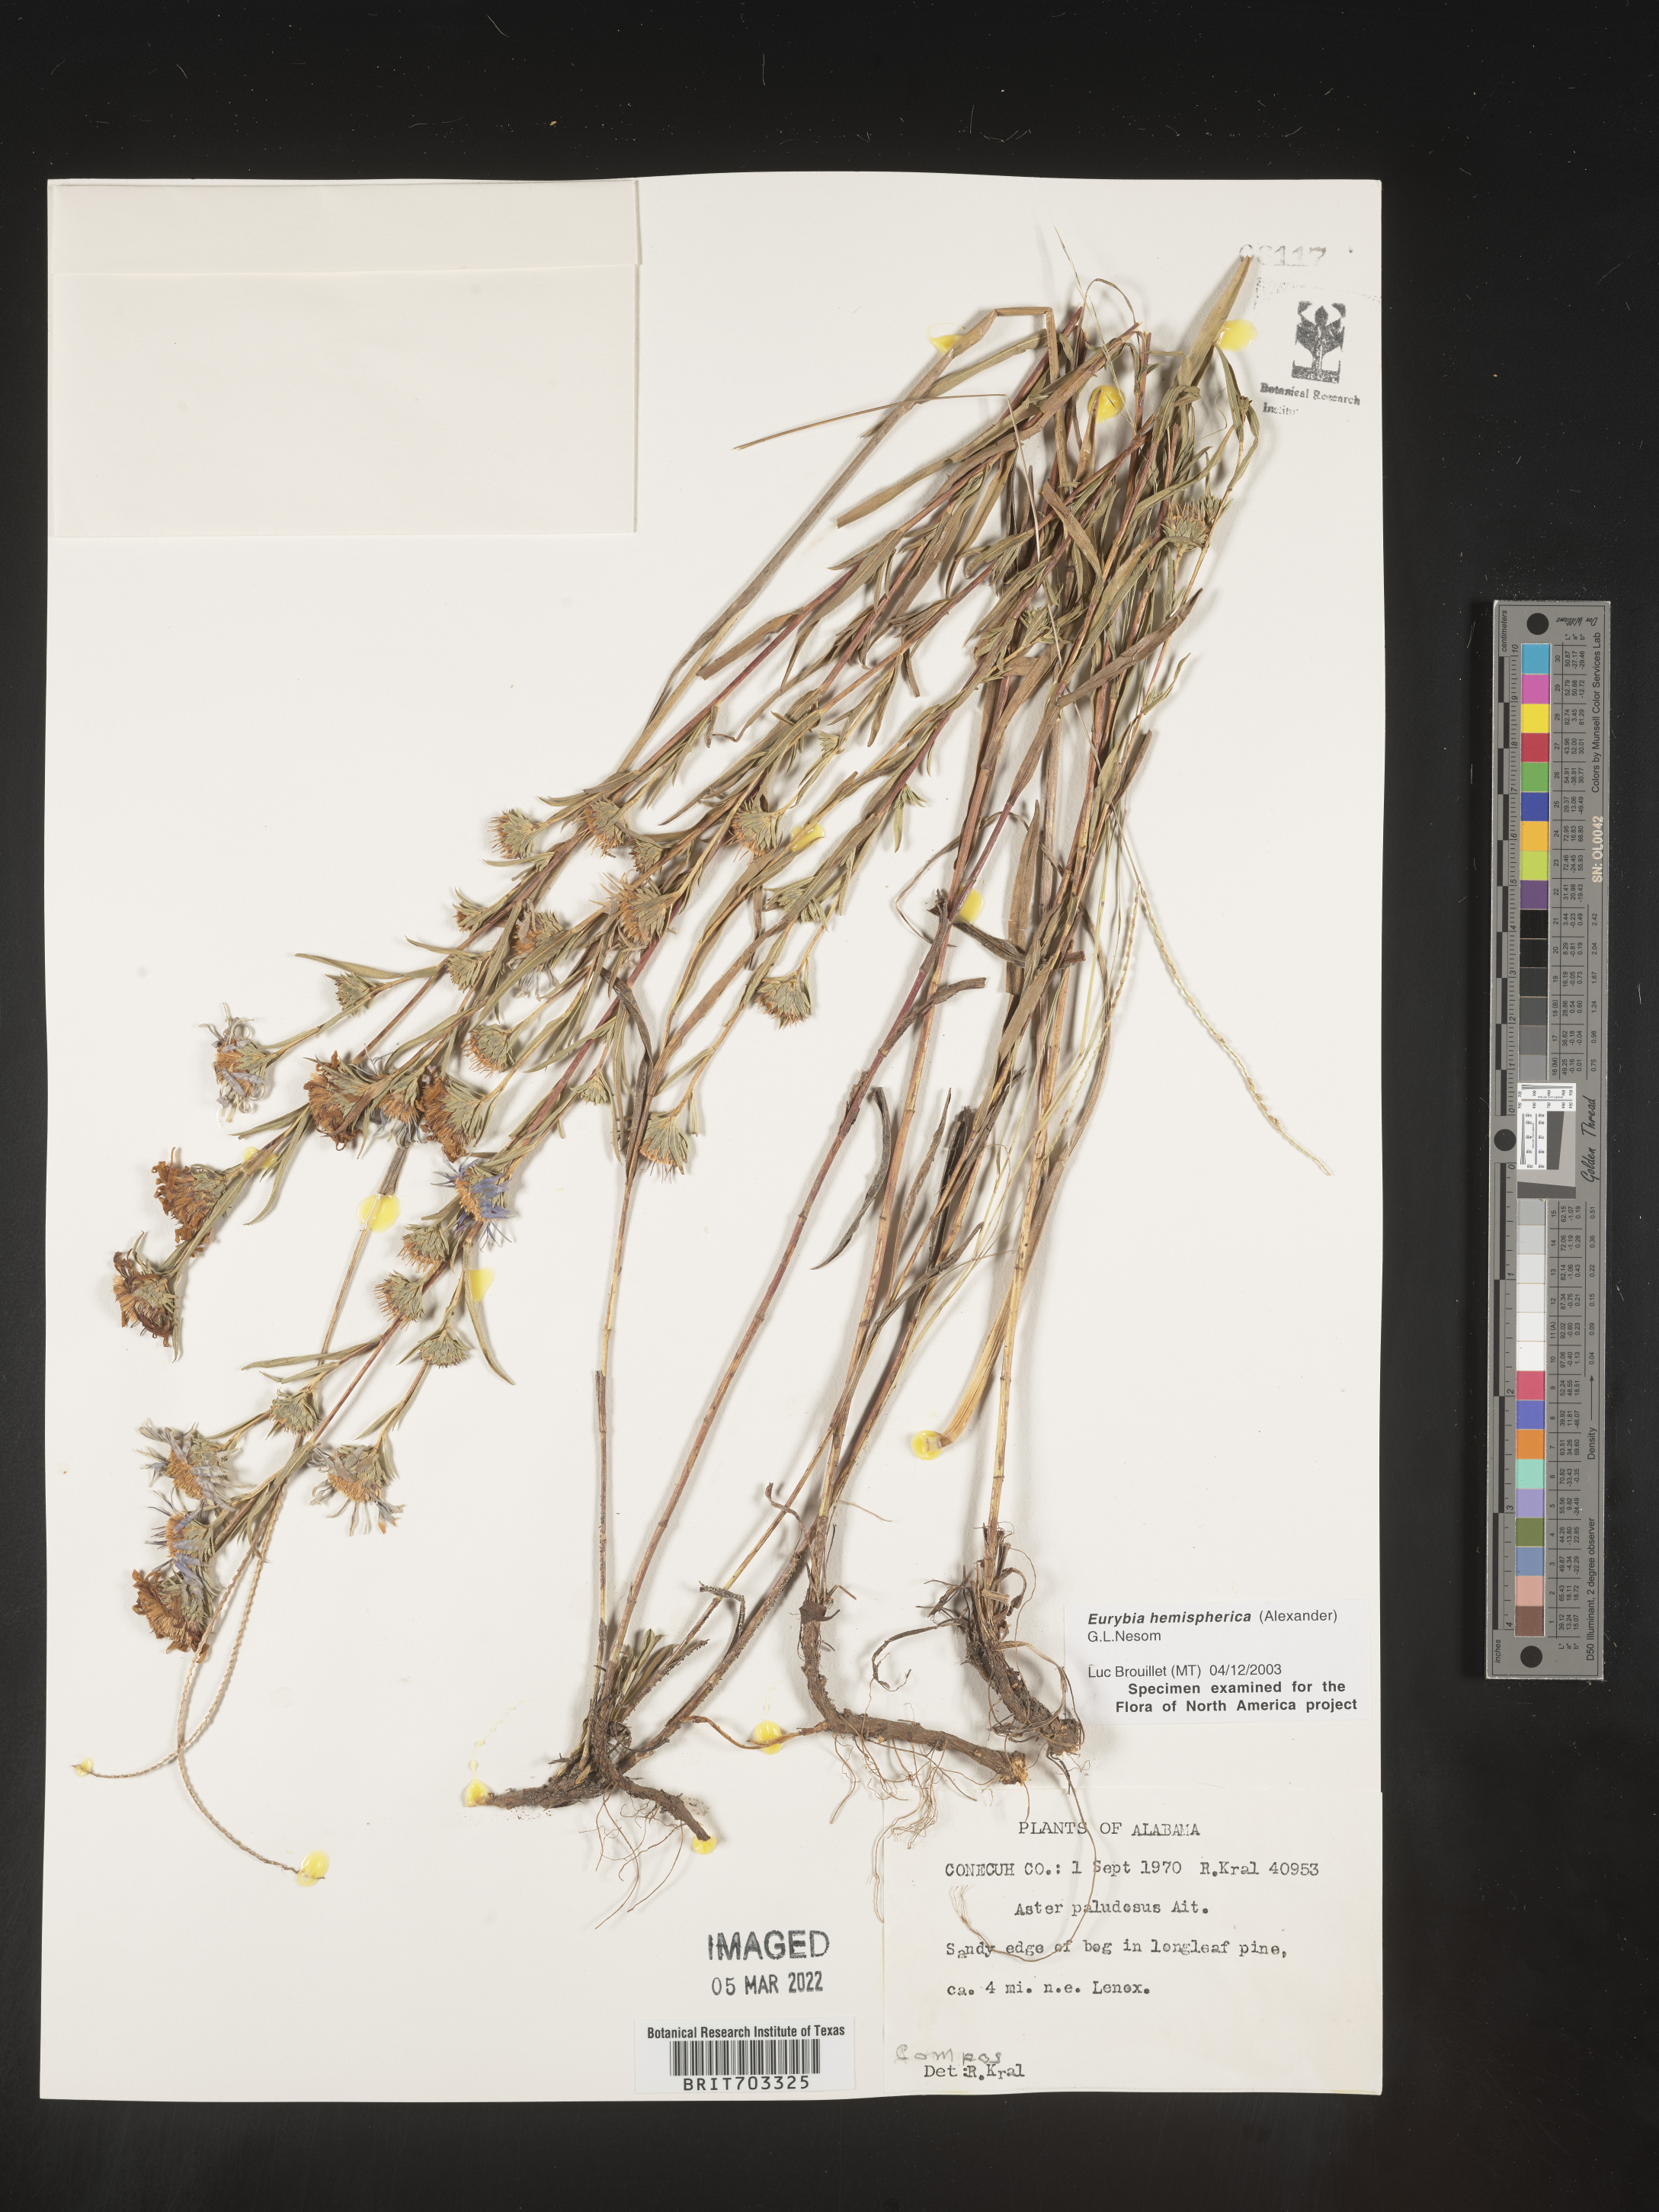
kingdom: Plantae
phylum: Tracheophyta
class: Magnoliopsida
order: Asterales
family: Asteraceae
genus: Eurybia
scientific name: Eurybia hemispherica
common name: Showy aster
